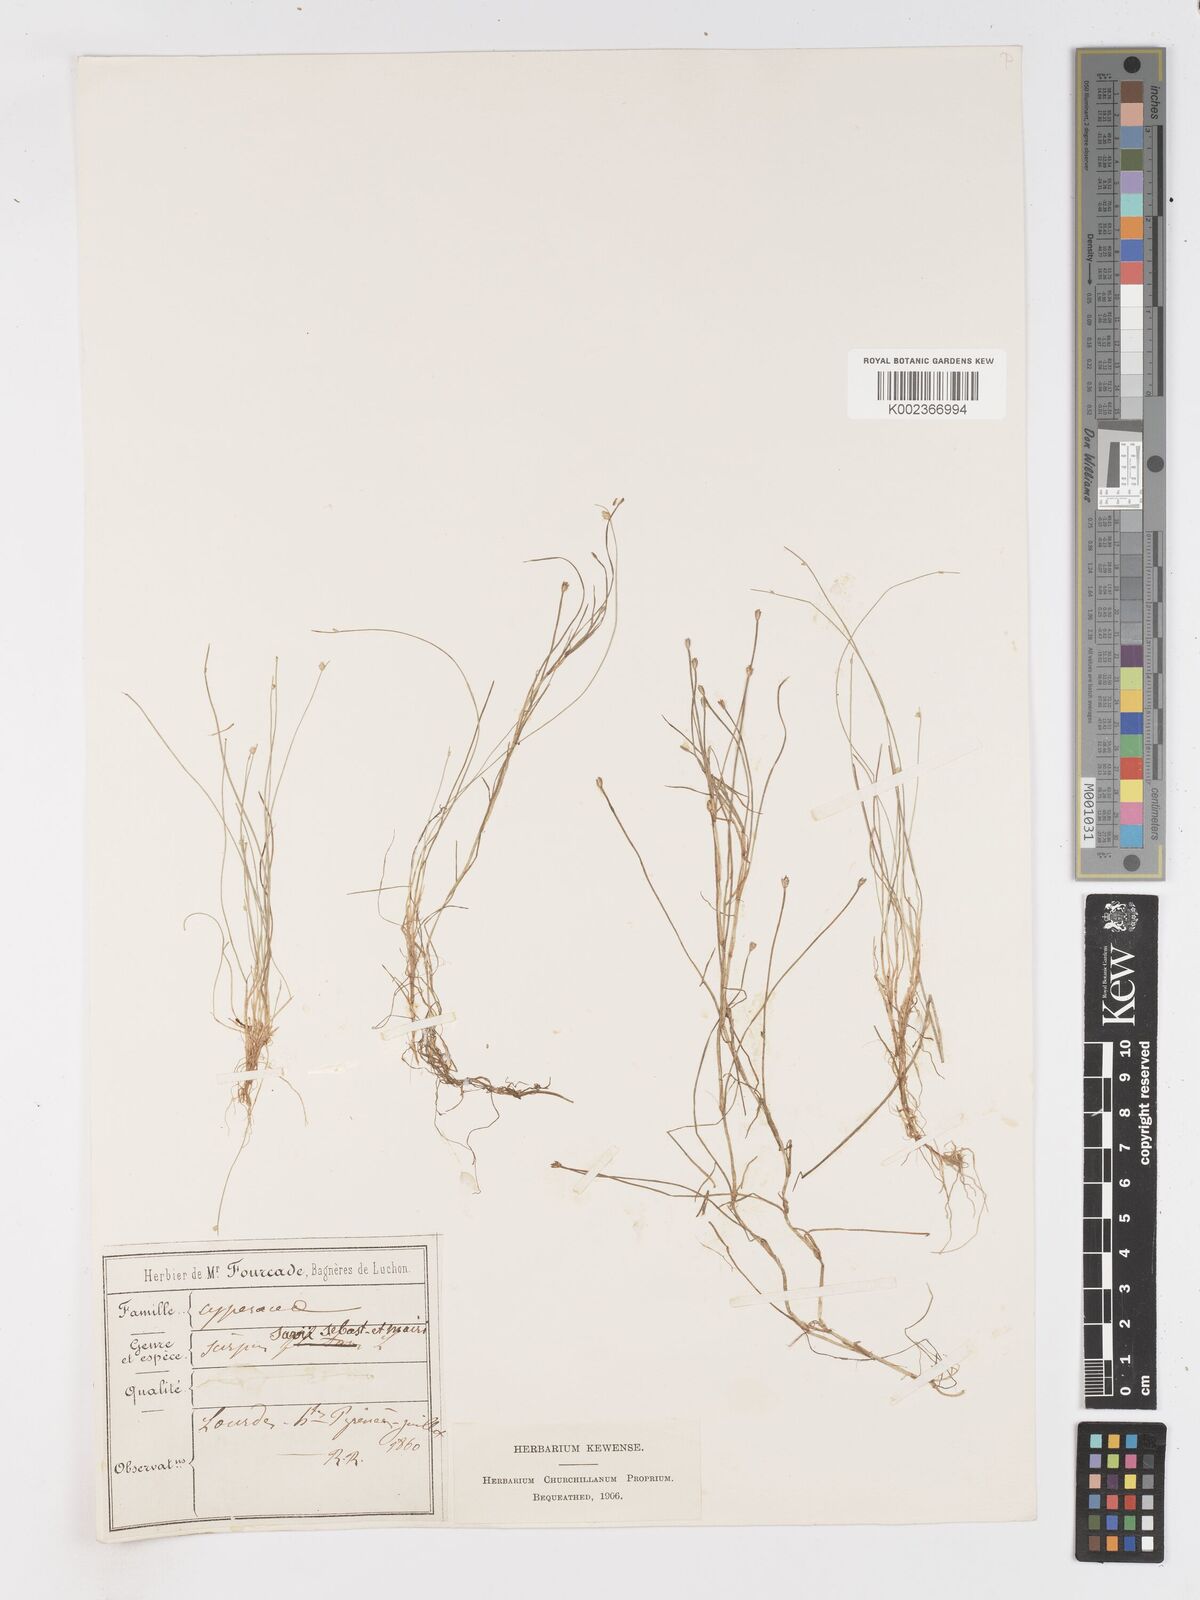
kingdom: Plantae
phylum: Tracheophyta
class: Liliopsida
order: Poales
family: Cyperaceae
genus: Isolepis
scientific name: Isolepis fluitans
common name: Floating club-rush
